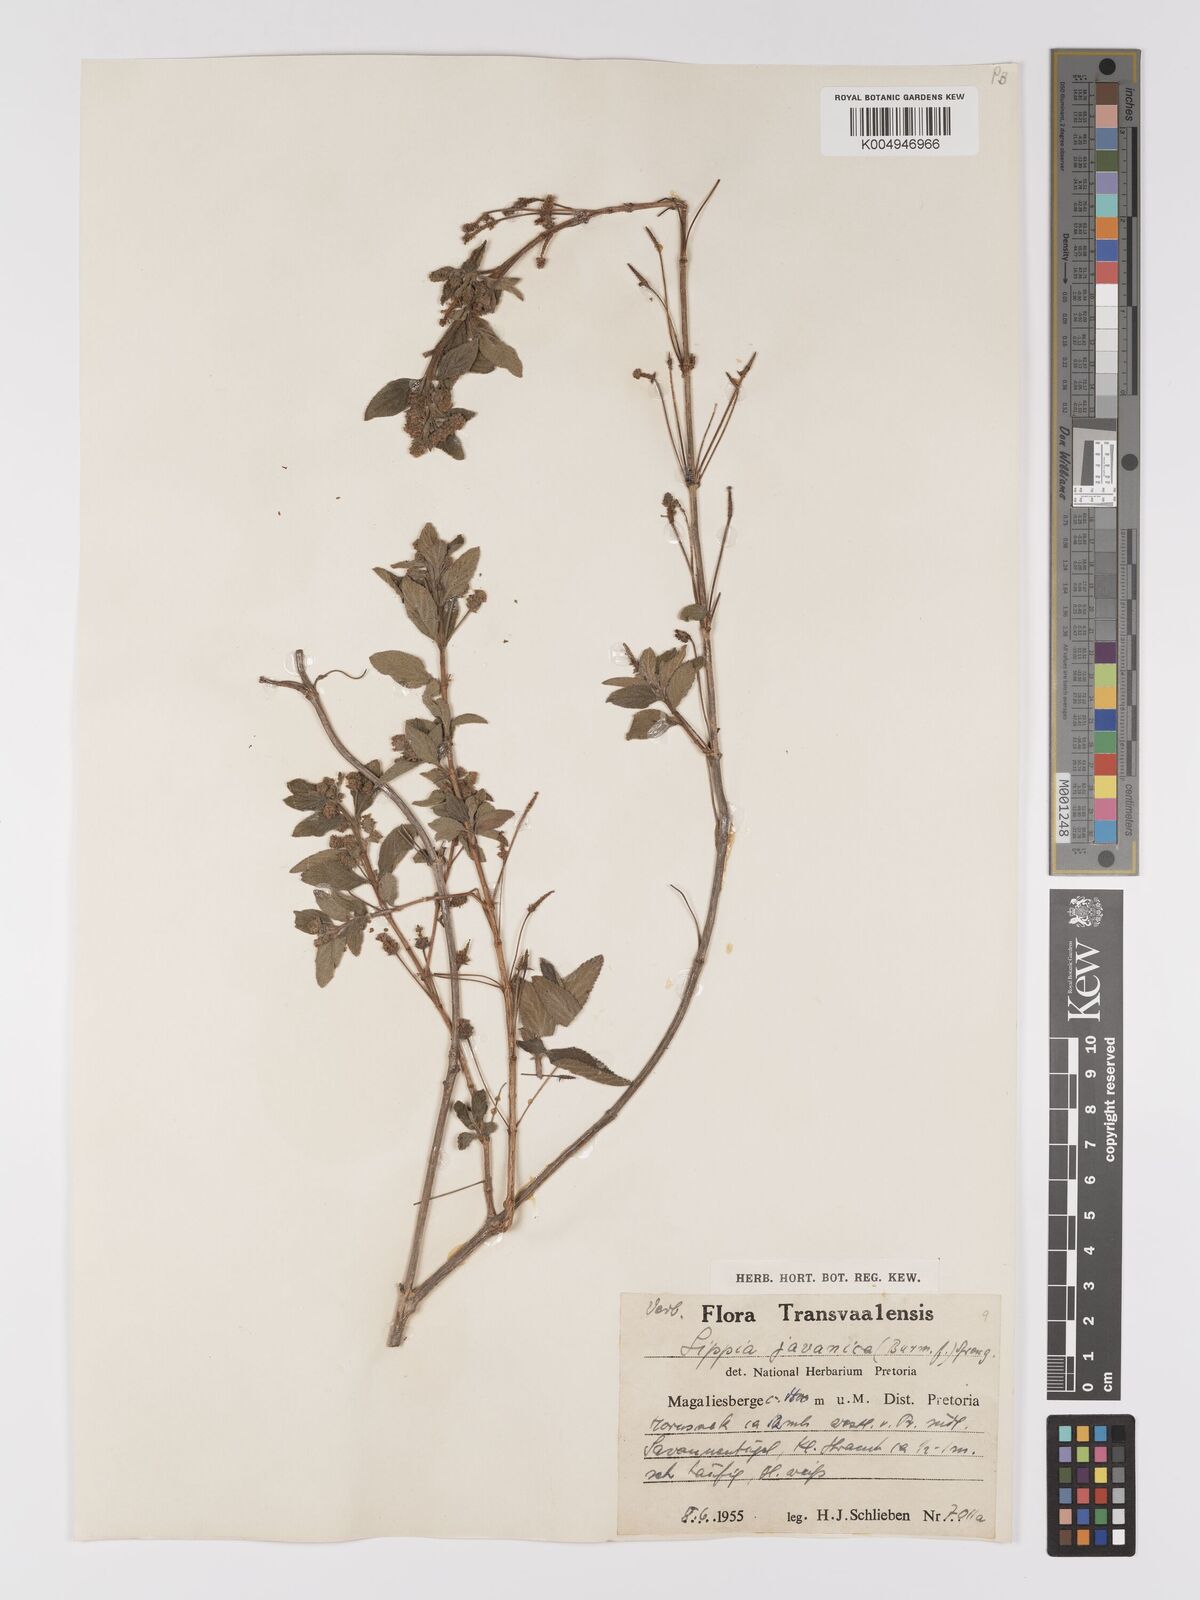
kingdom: Plantae
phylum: Tracheophyta
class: Magnoliopsida
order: Lamiales
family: Verbenaceae
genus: Lippia
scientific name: Lippia javanica
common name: Lemonbush
